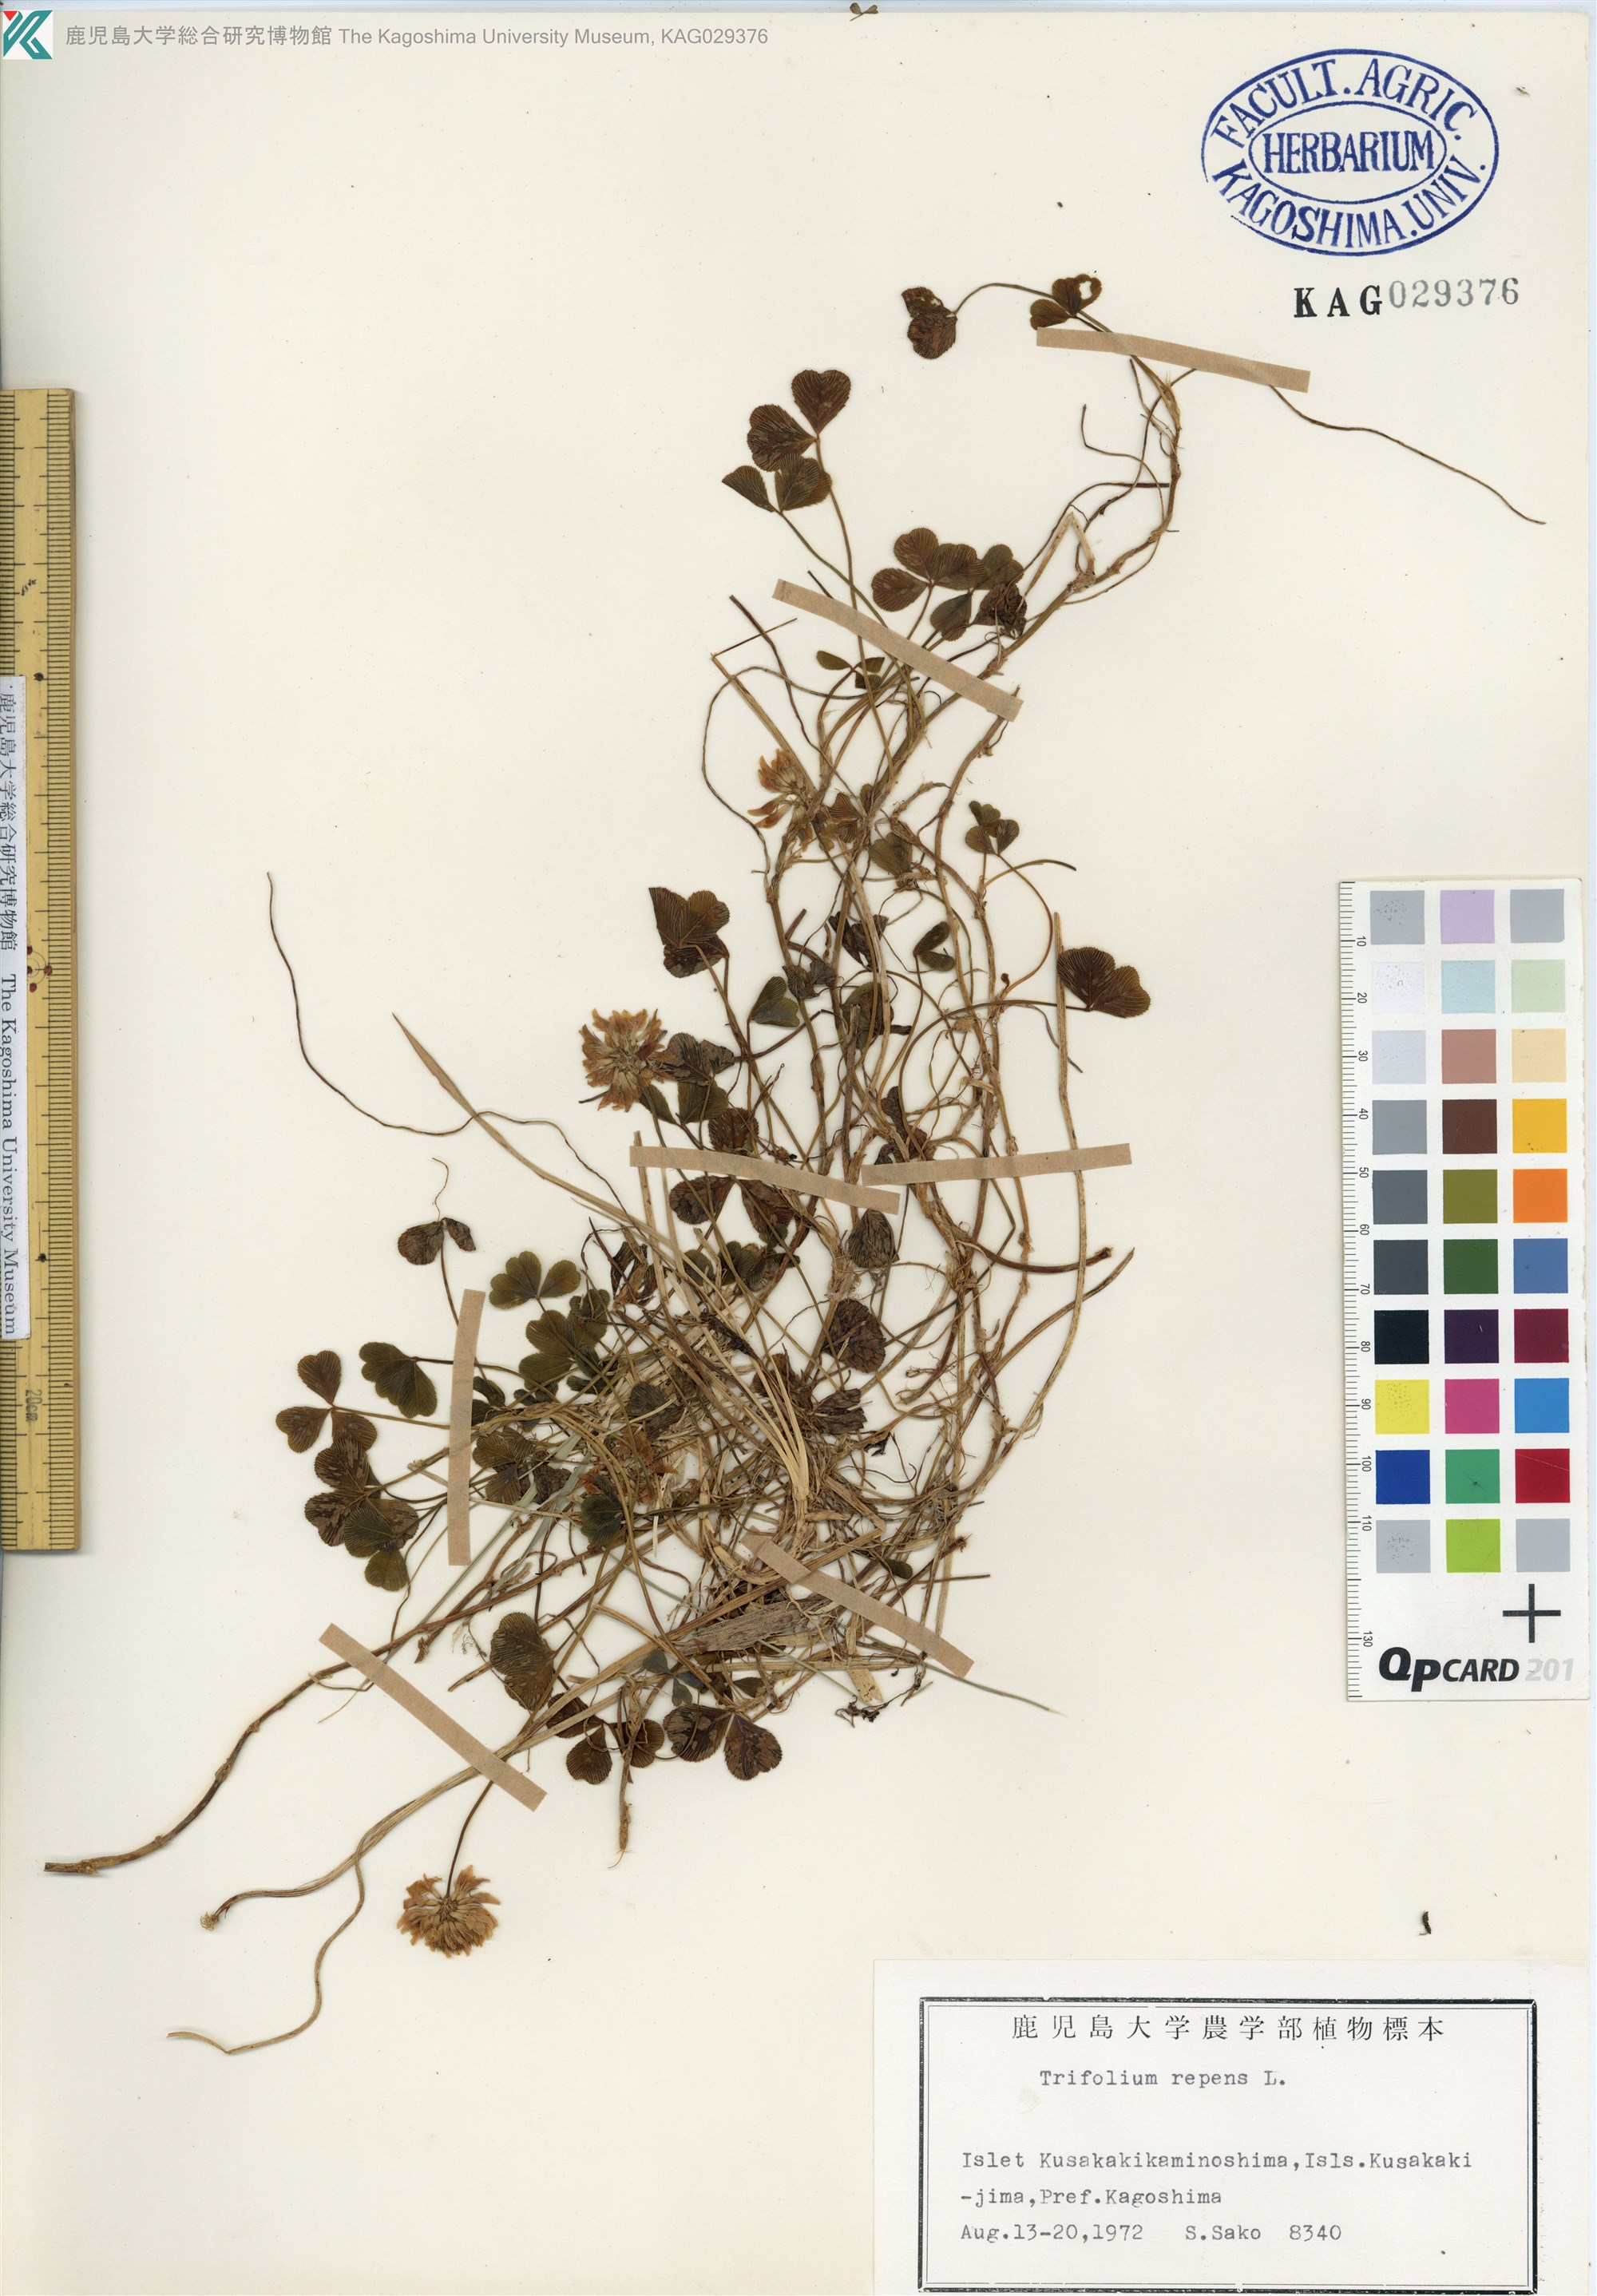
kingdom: Plantae
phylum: Tracheophyta
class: Magnoliopsida
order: Fabales
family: Fabaceae
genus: Trifolium
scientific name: Trifolium repens
